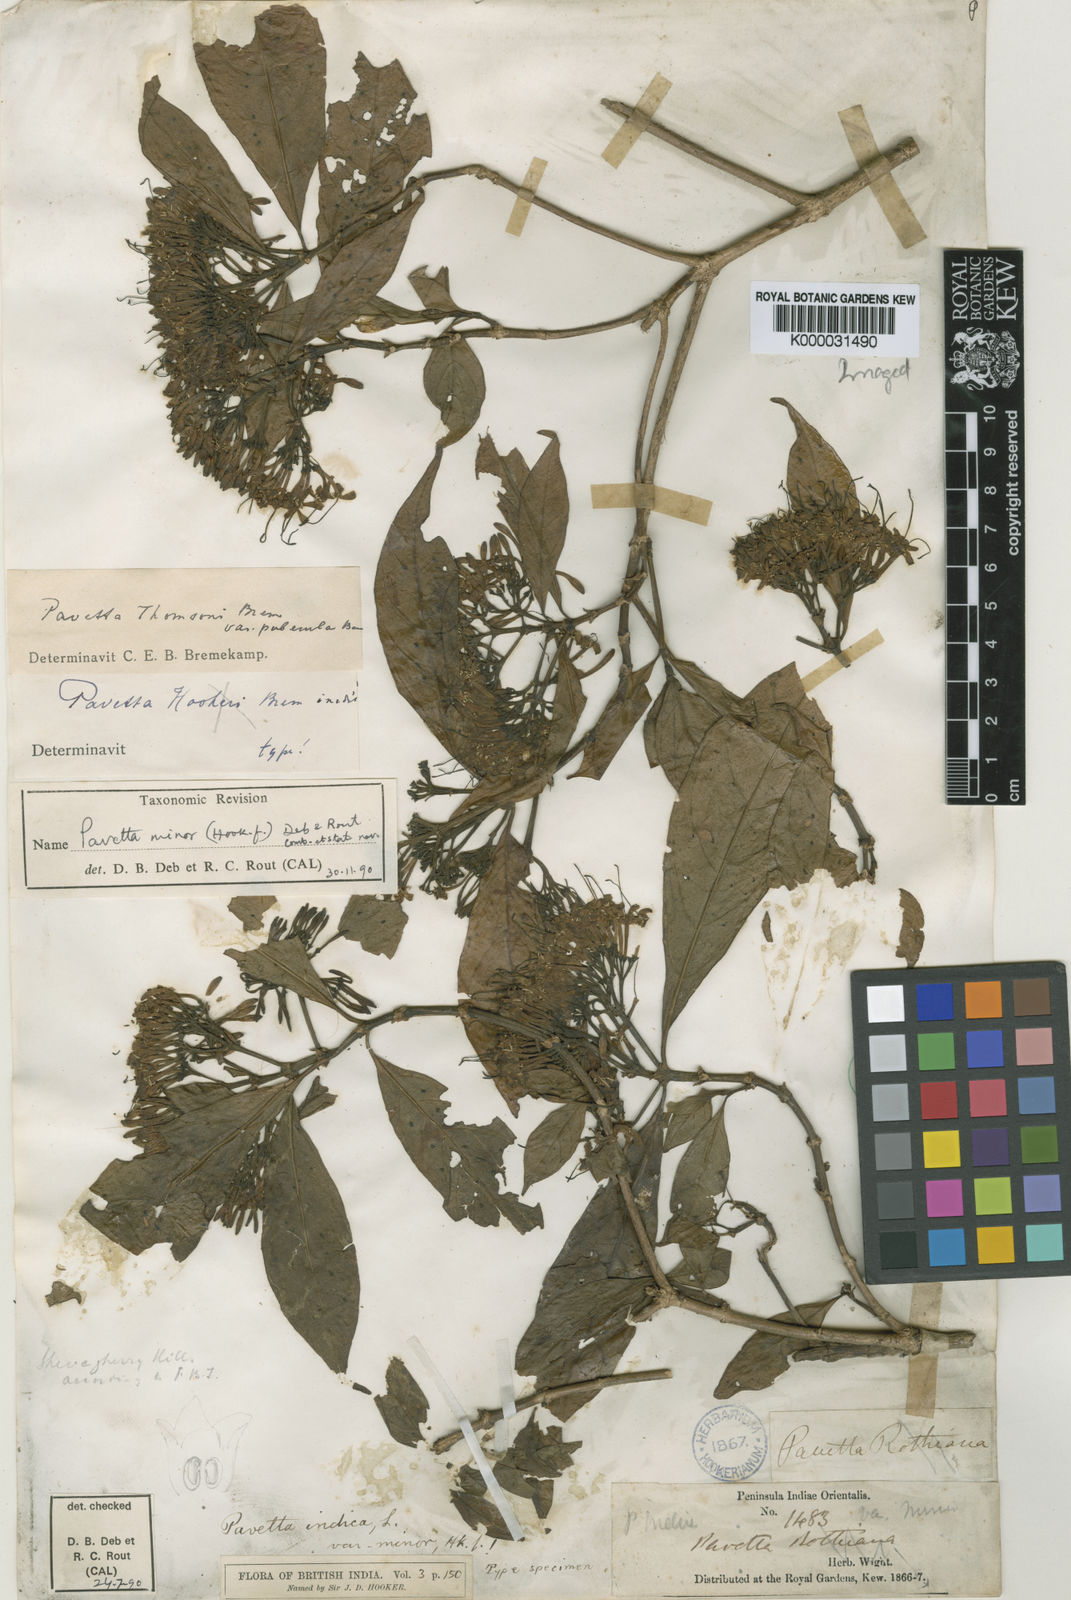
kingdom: Plantae
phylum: Tracheophyta
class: Magnoliopsida
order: Gentianales
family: Rubiaceae
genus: Pavetta
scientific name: Pavetta indica
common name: Indian pavetta
